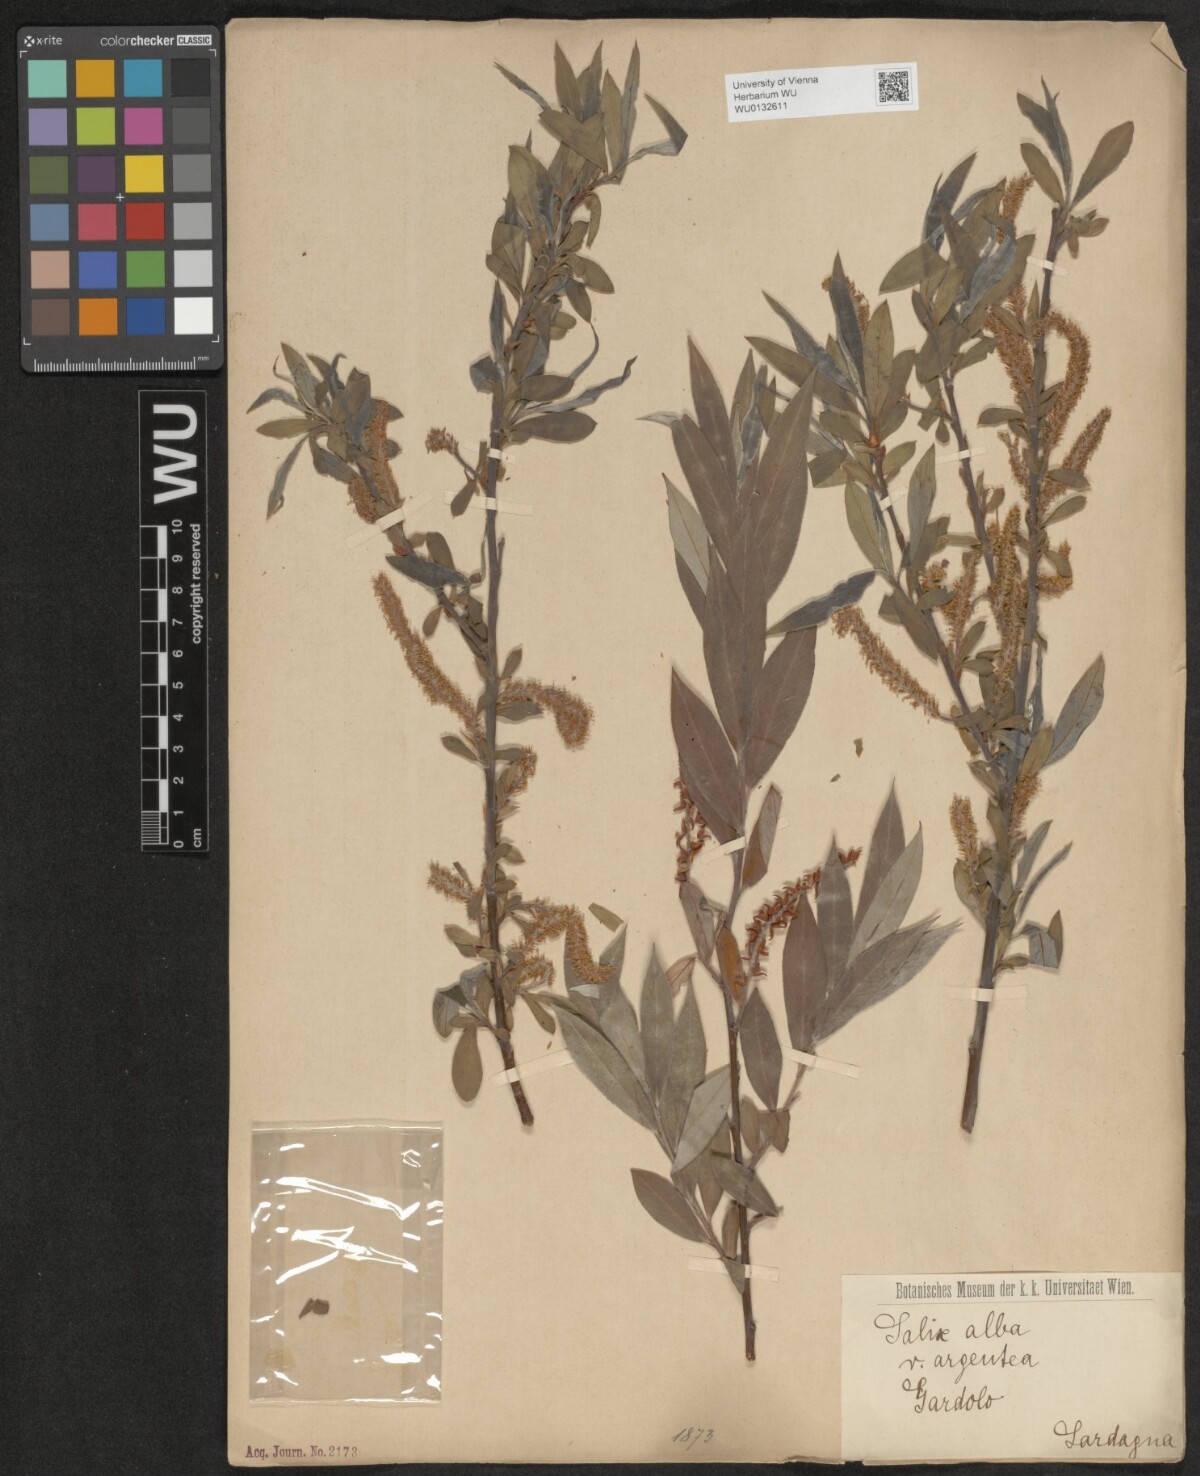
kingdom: Plantae
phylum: Tracheophyta
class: Magnoliopsida
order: Malpighiales
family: Salicaceae
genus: Salix
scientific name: Salix alba
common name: White willow
